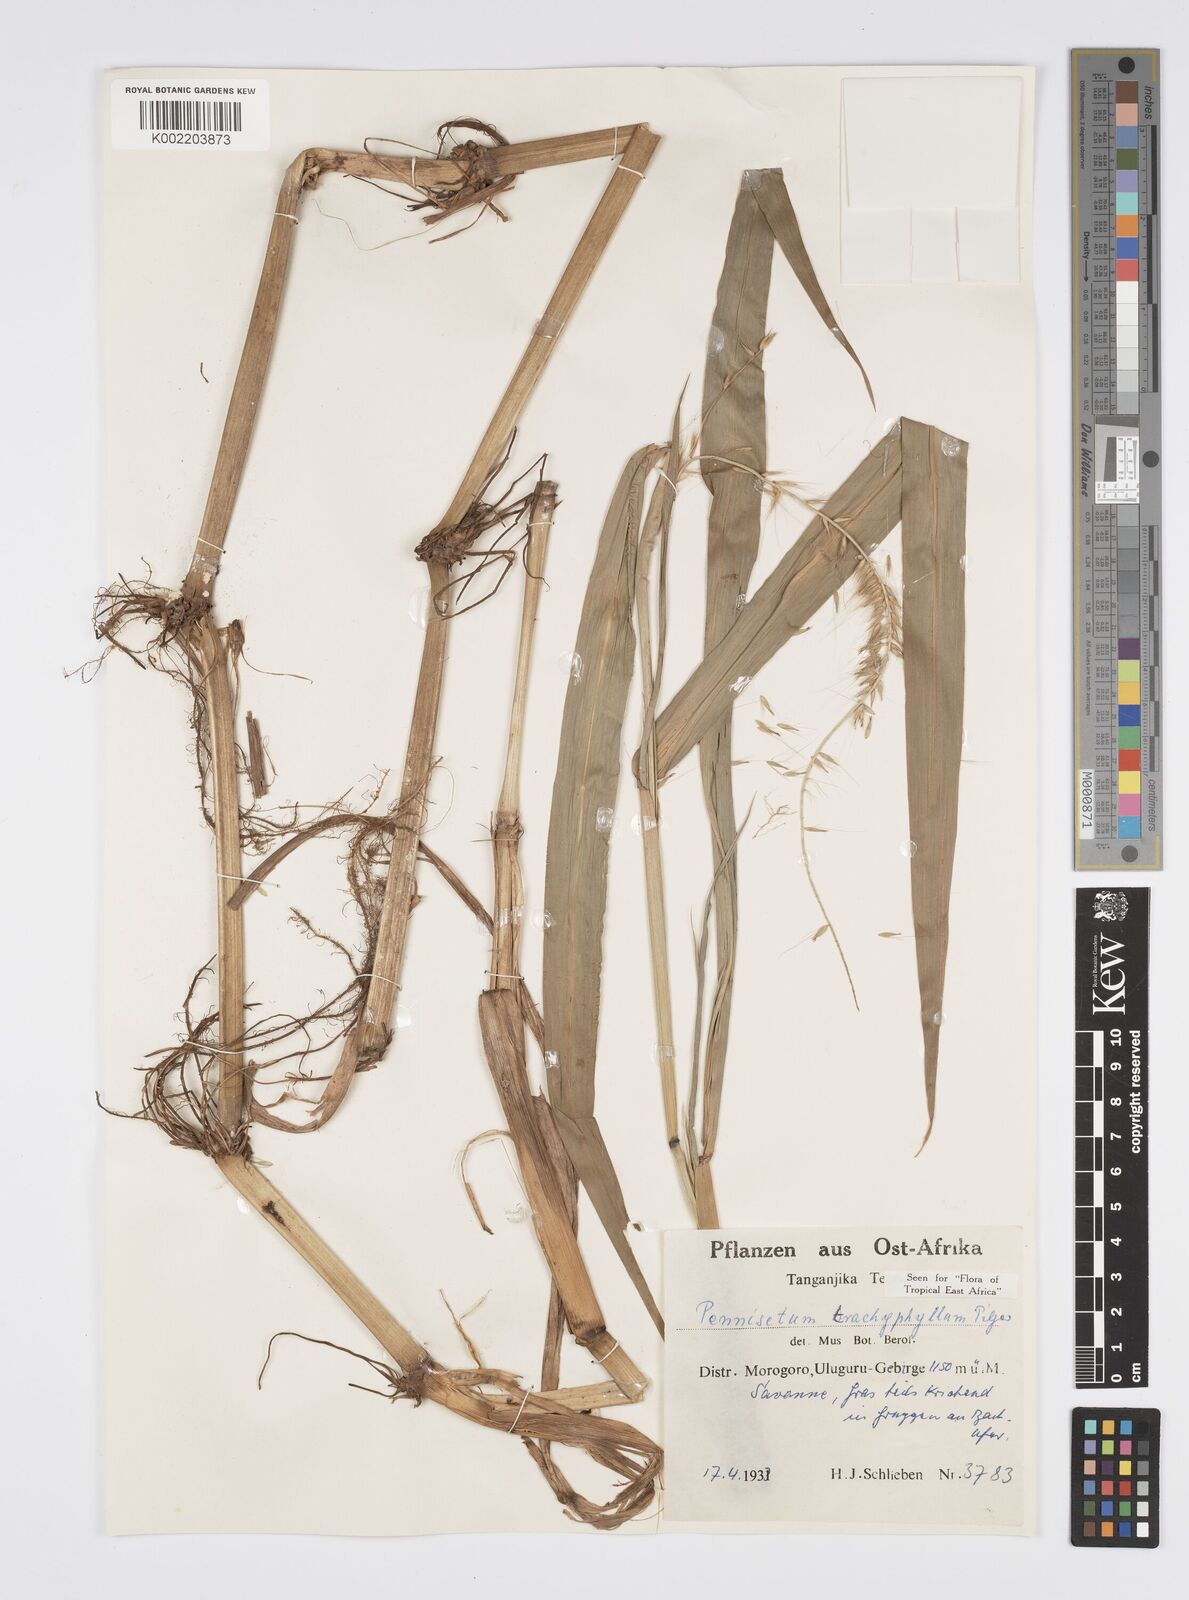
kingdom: Plantae
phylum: Tracheophyta
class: Liliopsida
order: Poales
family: Poaceae
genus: Cenchrus
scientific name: Cenchrus trachyphyllus
